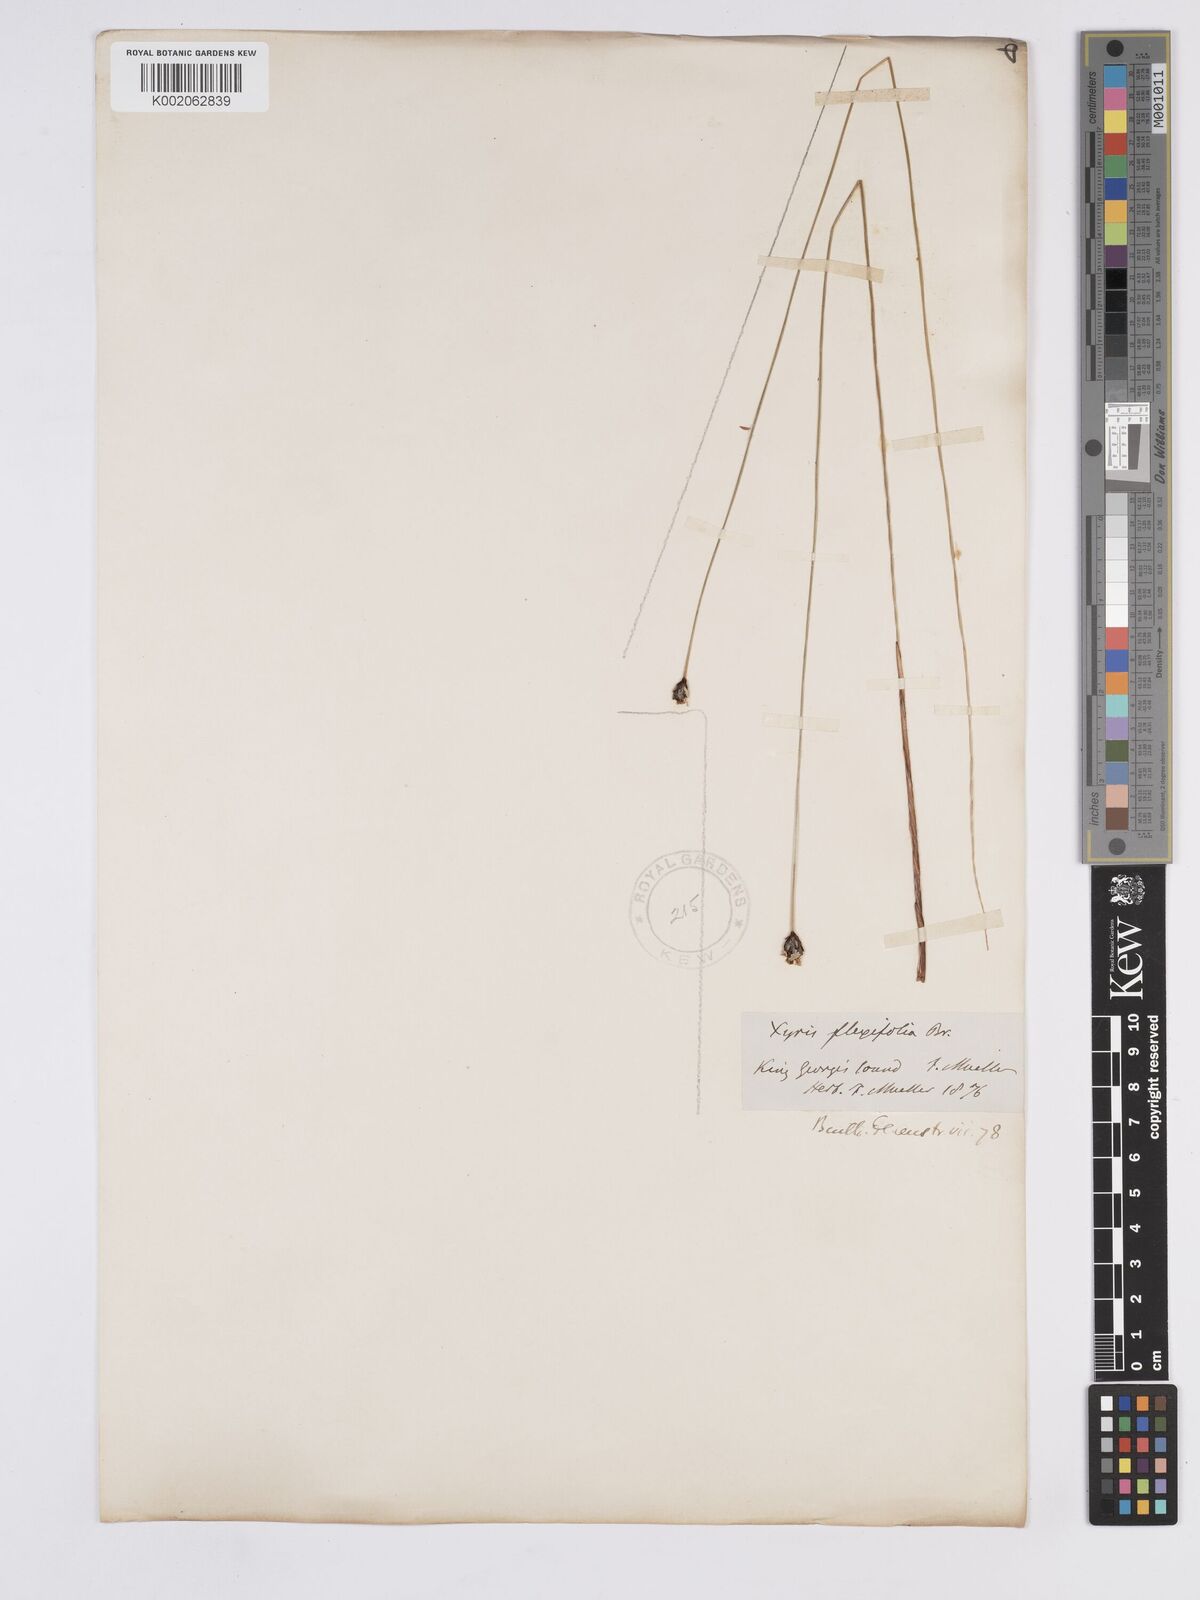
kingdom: Plantae
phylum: Tracheophyta
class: Liliopsida
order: Poales
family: Xyridaceae
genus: Xyris
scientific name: Xyris flexifolia
